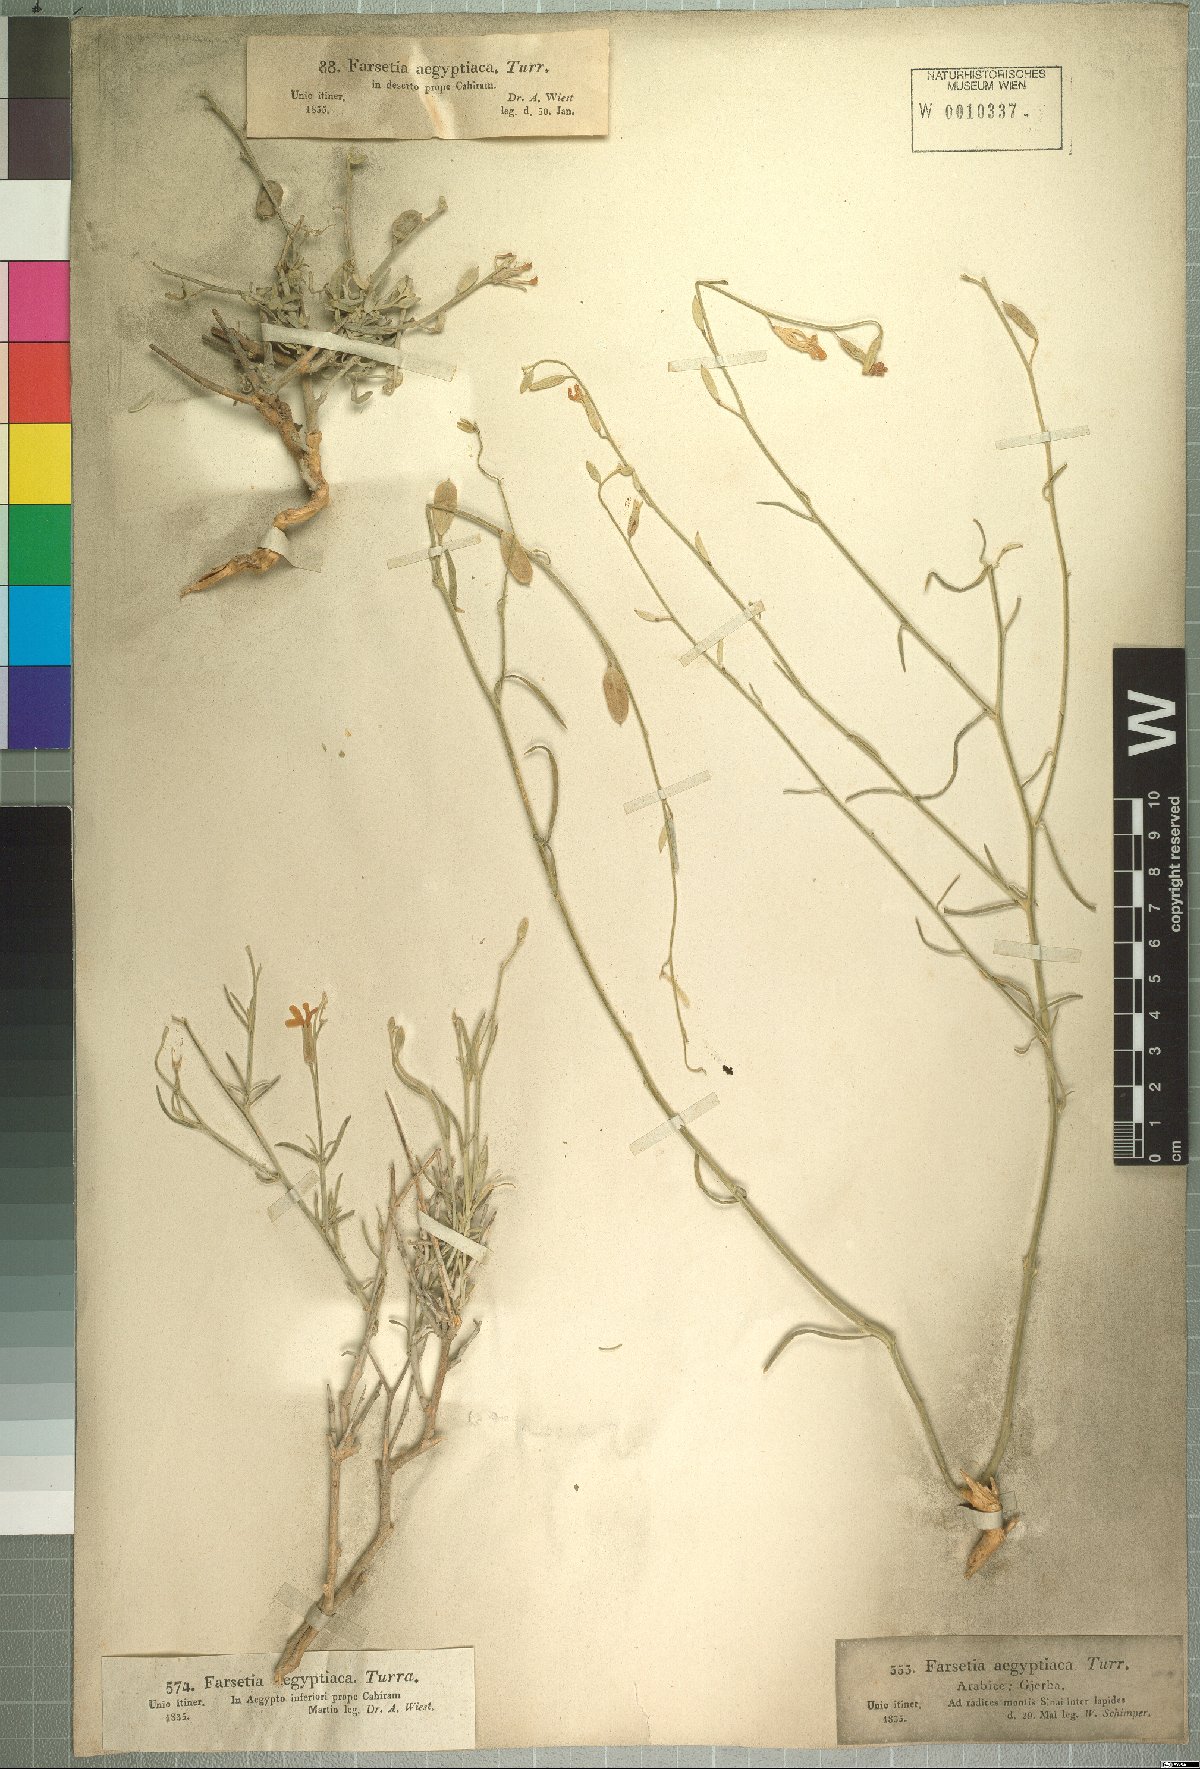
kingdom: Plantae
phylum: Tracheophyta
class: Magnoliopsida
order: Brassicales
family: Brassicaceae
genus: Farsetia
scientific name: Farsetia aegyptia
